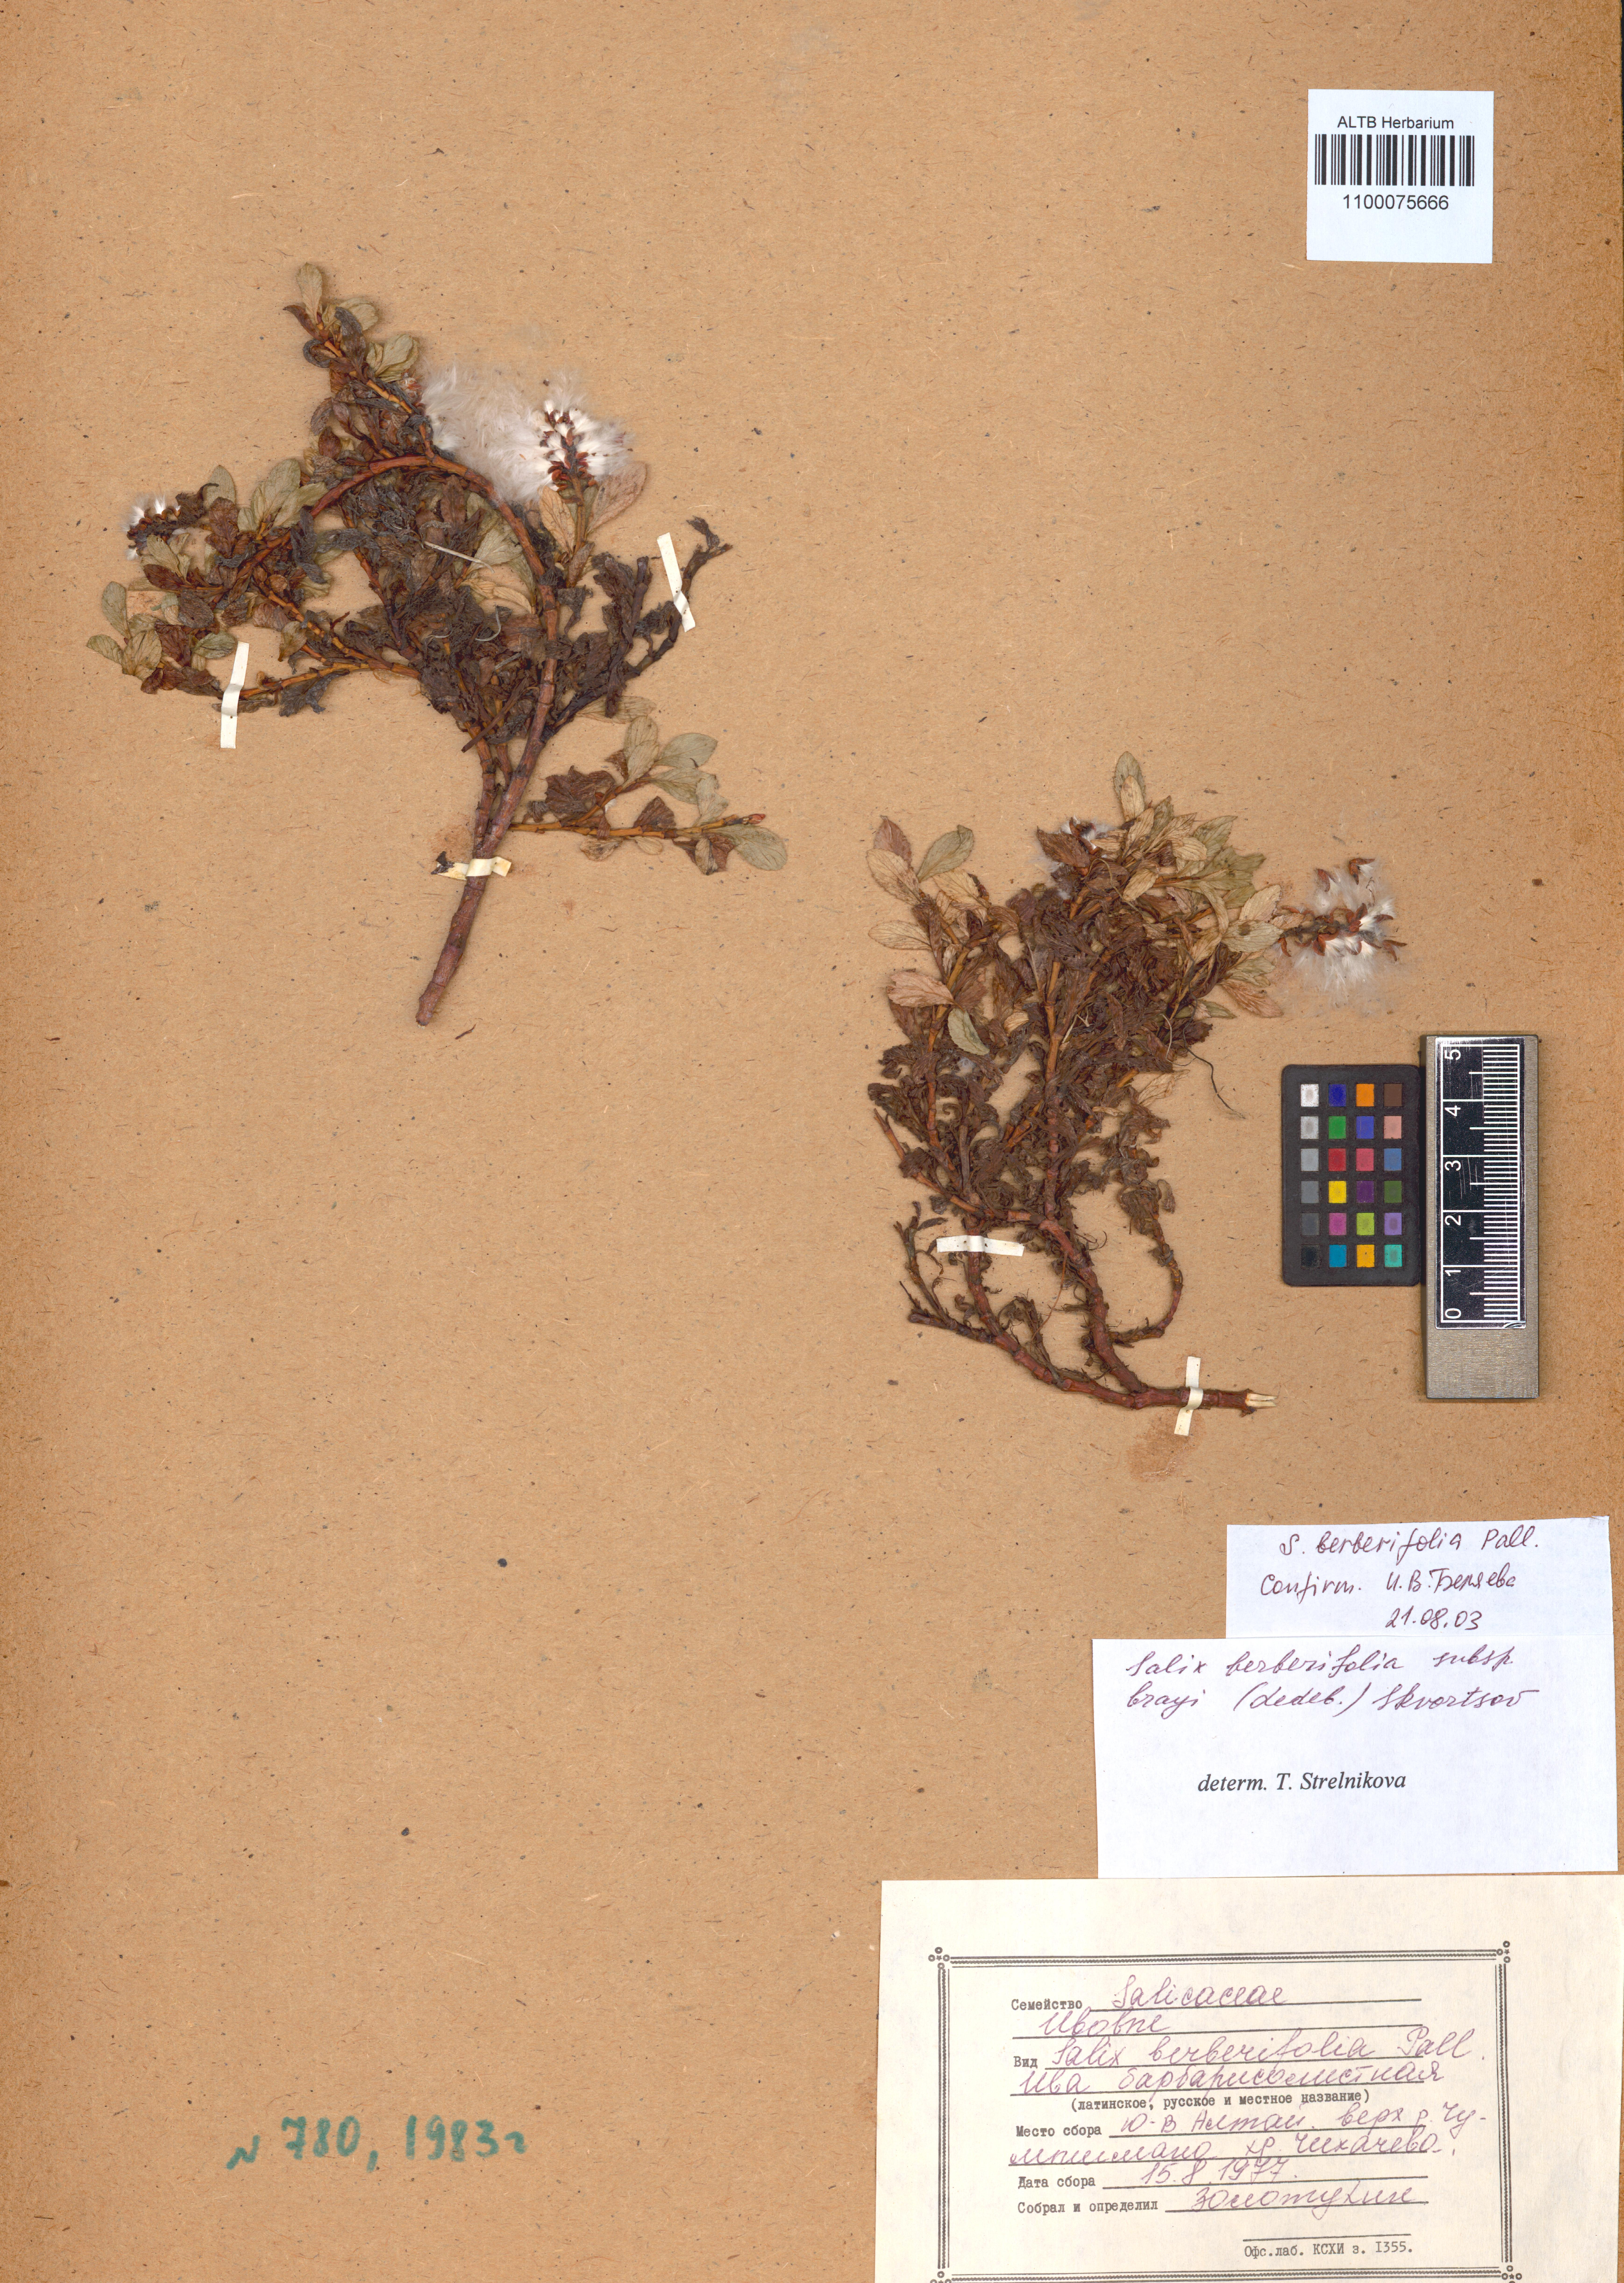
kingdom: Plantae
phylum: Tracheophyta
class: Magnoliopsida
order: Malpighiales
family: Salicaceae
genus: Salix
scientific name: Salix berberifolia
